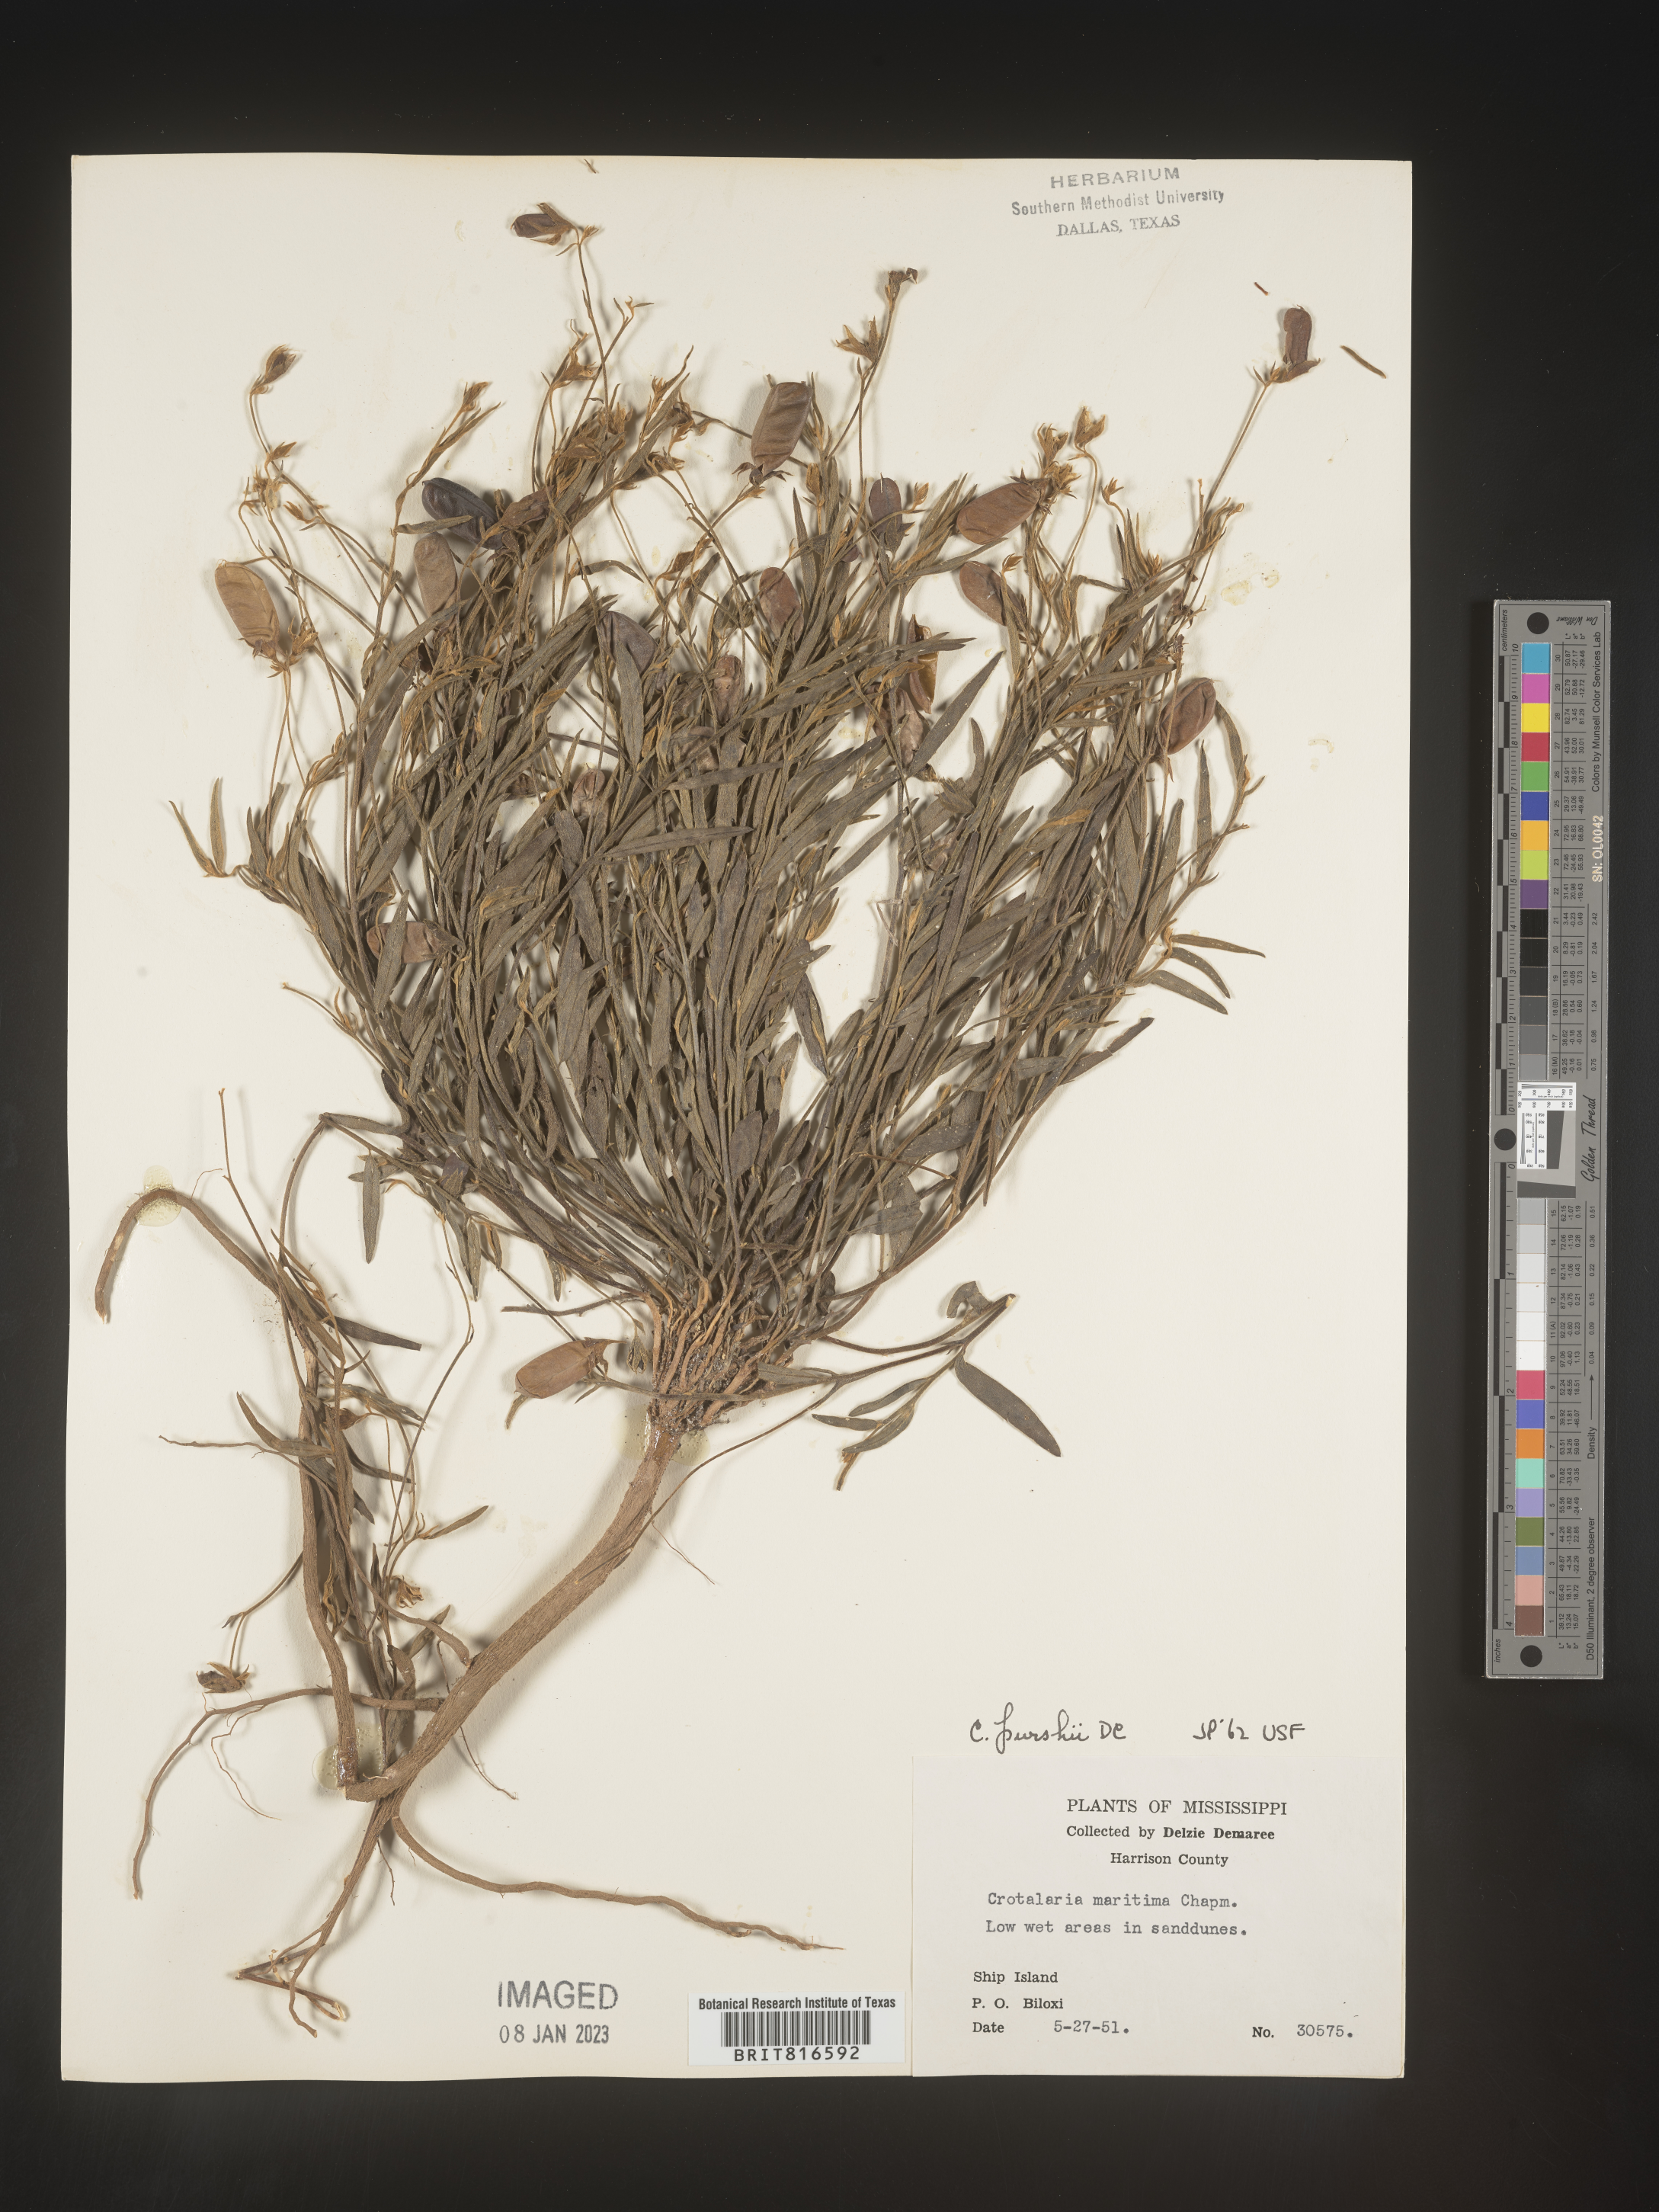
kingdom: Plantae
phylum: Tracheophyta
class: Magnoliopsida
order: Fabales
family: Fabaceae
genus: Crotalaria
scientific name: Crotalaria purshii
